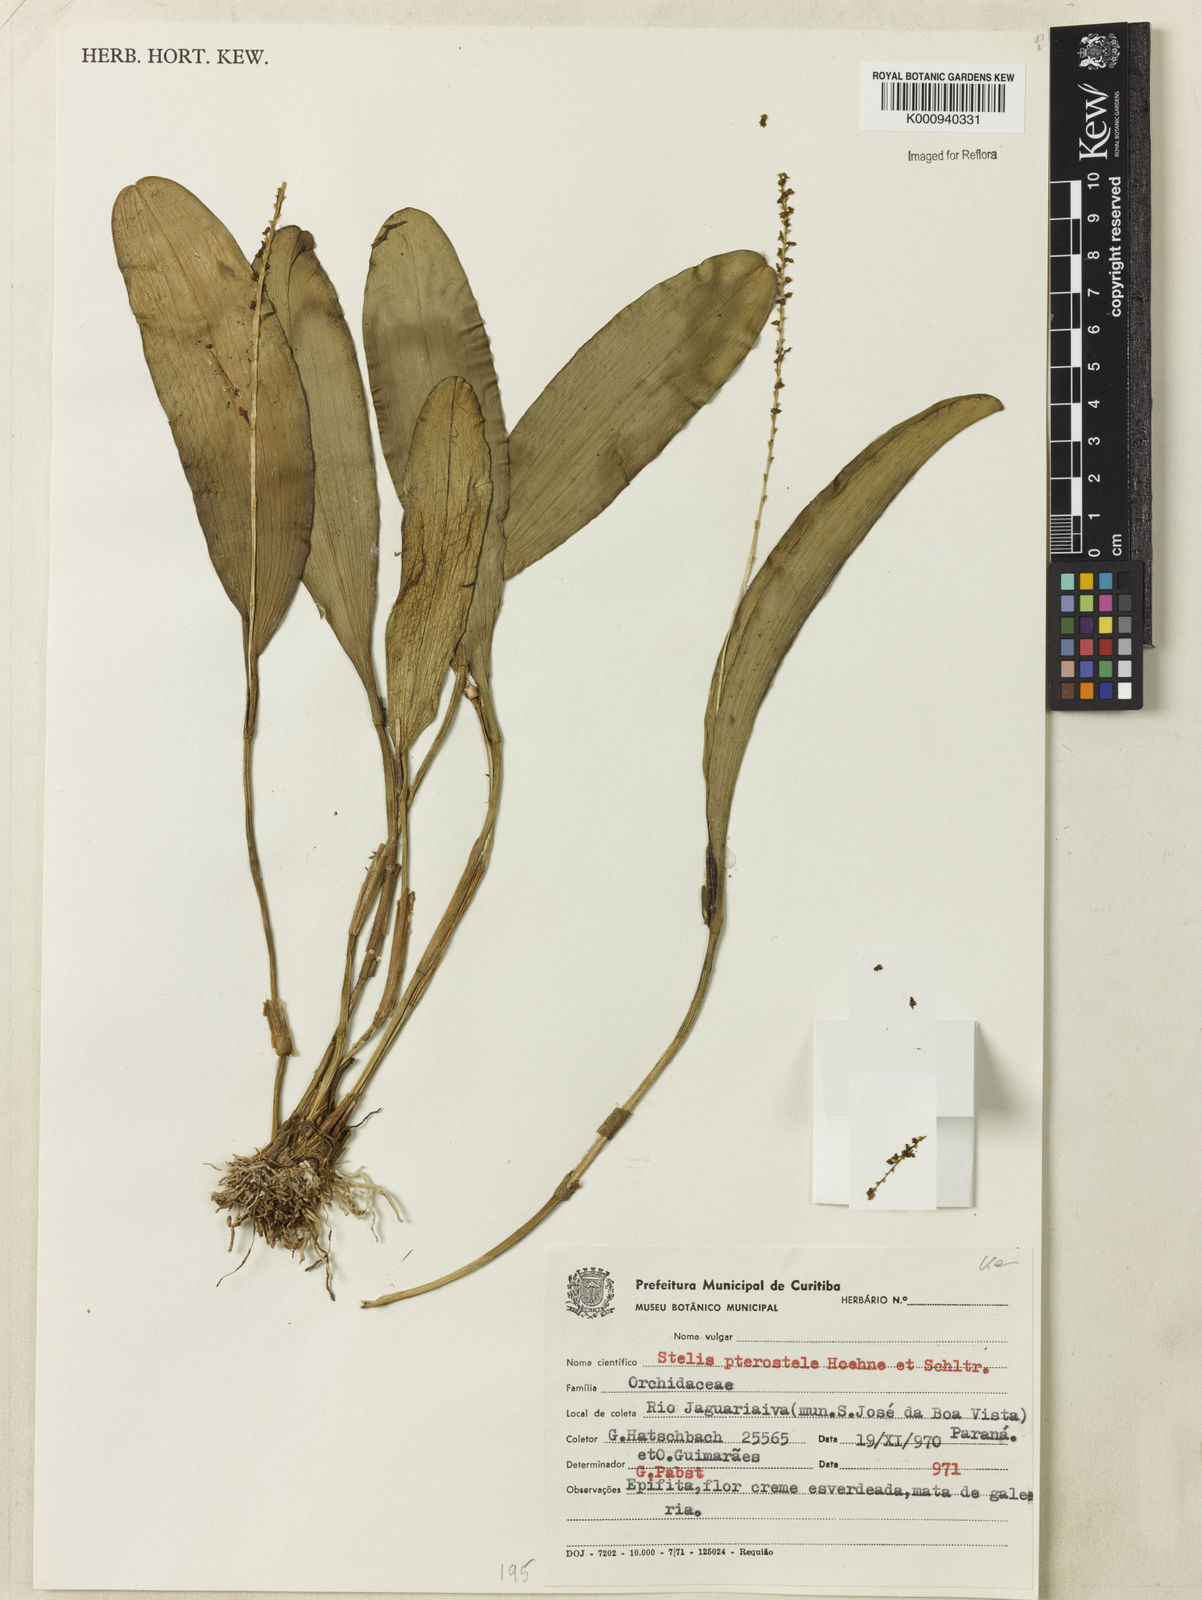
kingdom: Plantae
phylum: Tracheophyta
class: Liliopsida
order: Asparagales
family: Orchidaceae
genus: Stelis
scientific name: Stelis papaquerensis
